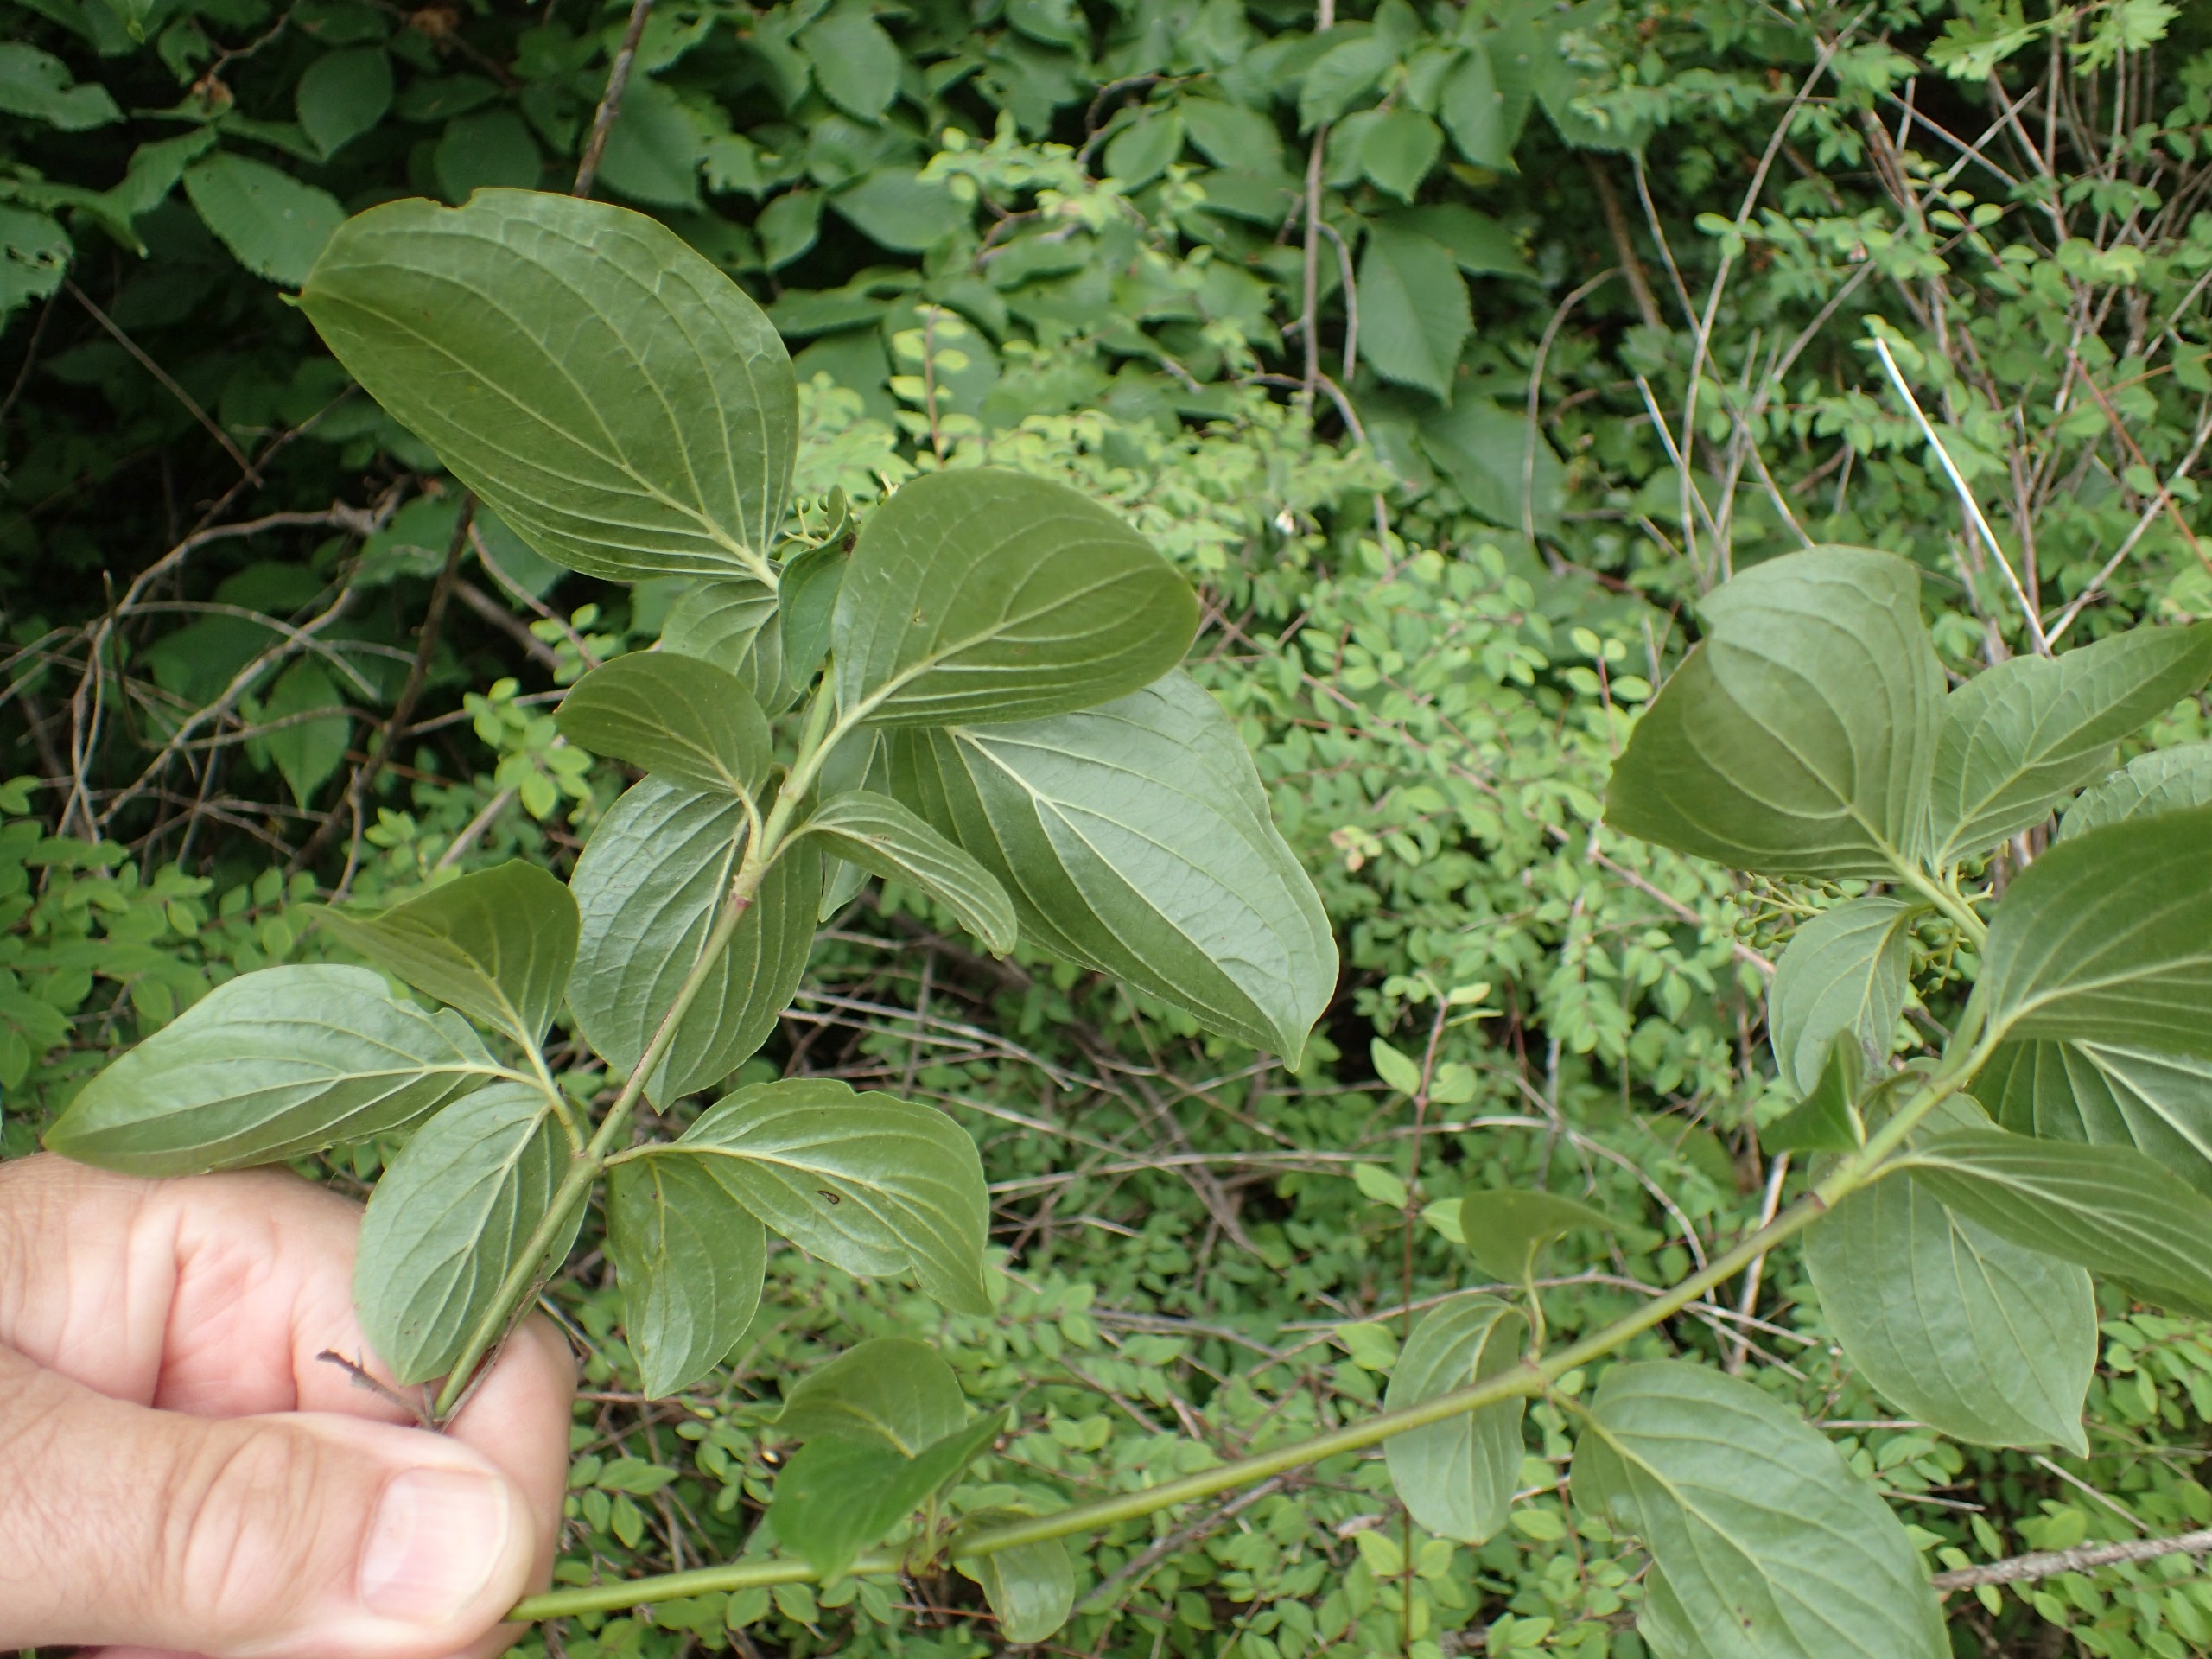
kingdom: Plantae
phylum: Tracheophyta
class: Magnoliopsida
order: Cornales
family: Cornaceae
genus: Cornus
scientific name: Cornus sanguinea
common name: Rød kornel
